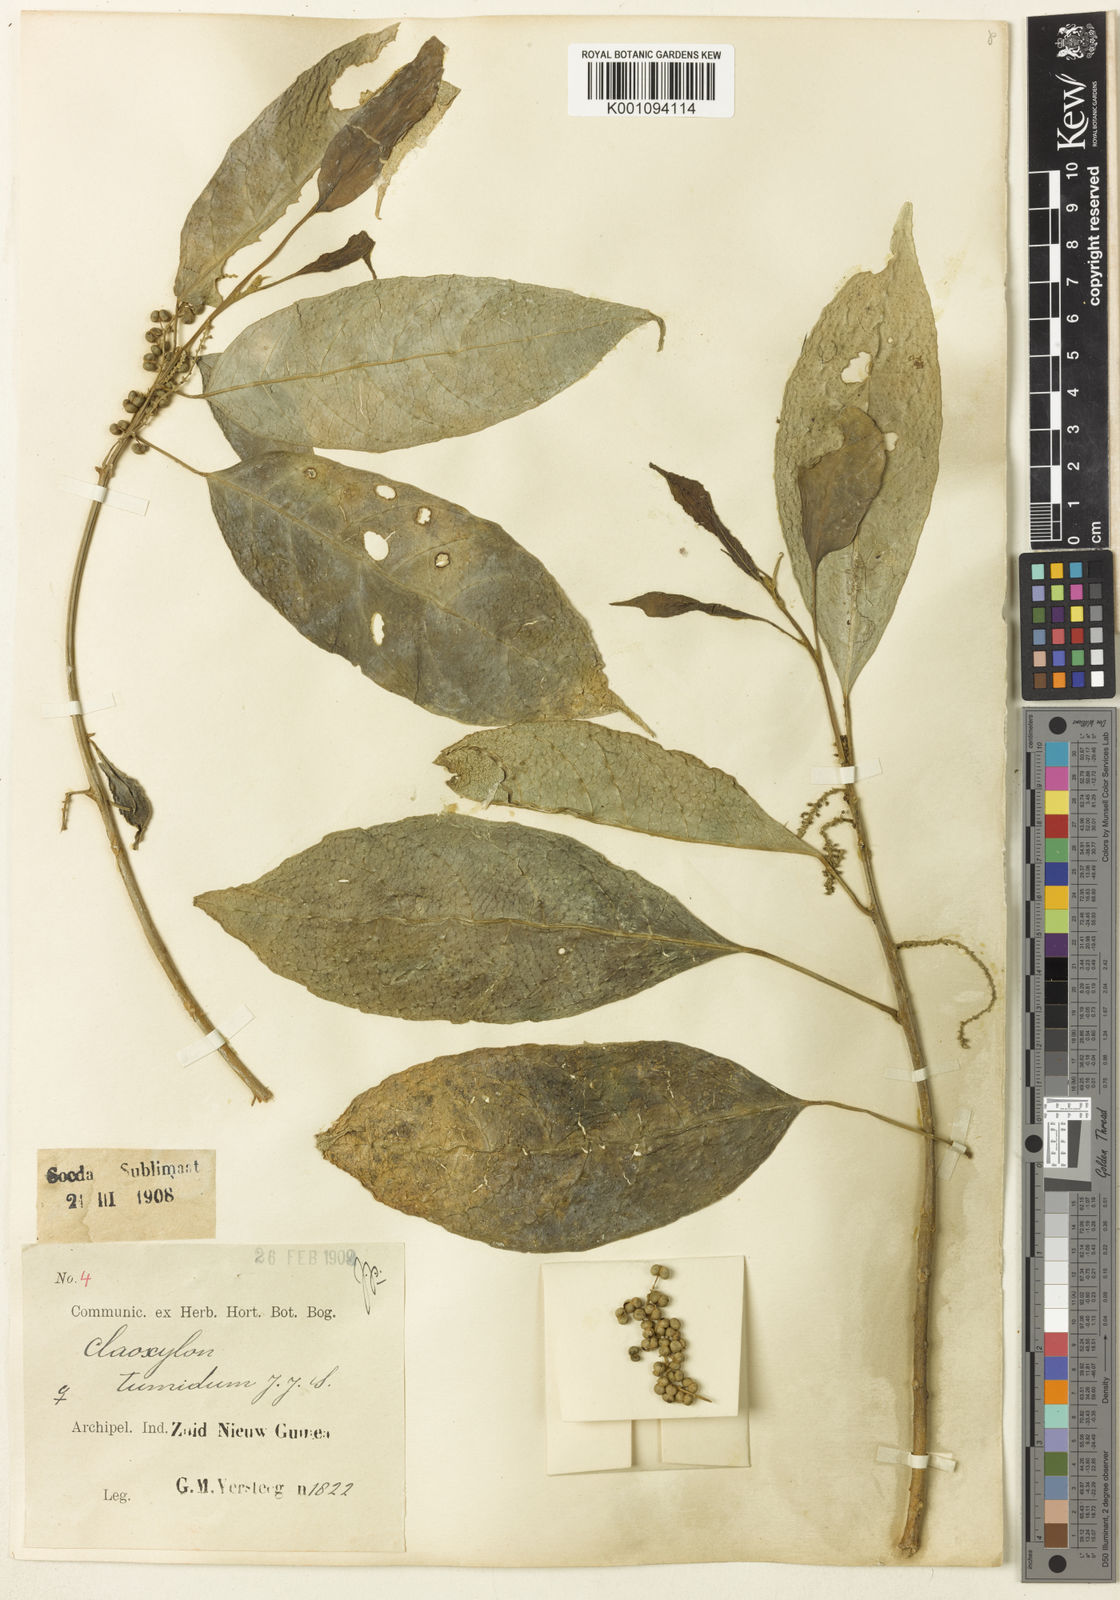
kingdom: Plantae
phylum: Tracheophyta
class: Magnoliopsida
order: Malpighiales
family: Euphorbiaceae
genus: Claoxylon
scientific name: Claoxylon cuneatum
